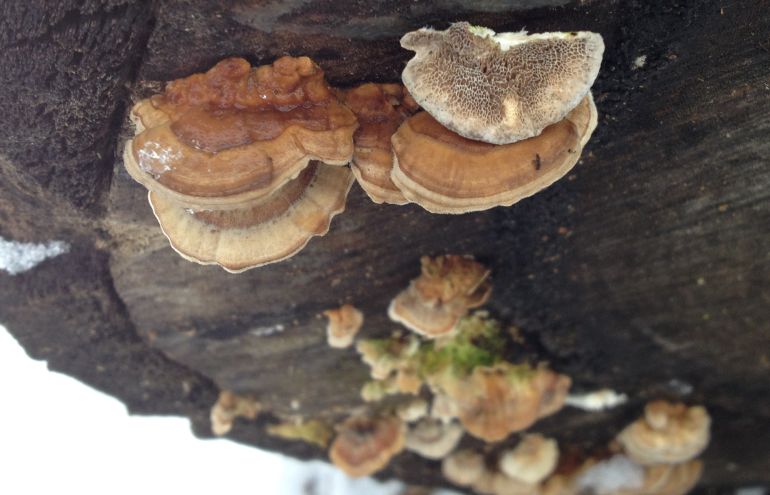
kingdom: Fungi
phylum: Basidiomycota
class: Agaricomycetes
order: Polyporales
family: Polyporaceae
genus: Trametes
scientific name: Trametes ochracea
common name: bæltet læderporesvamp
